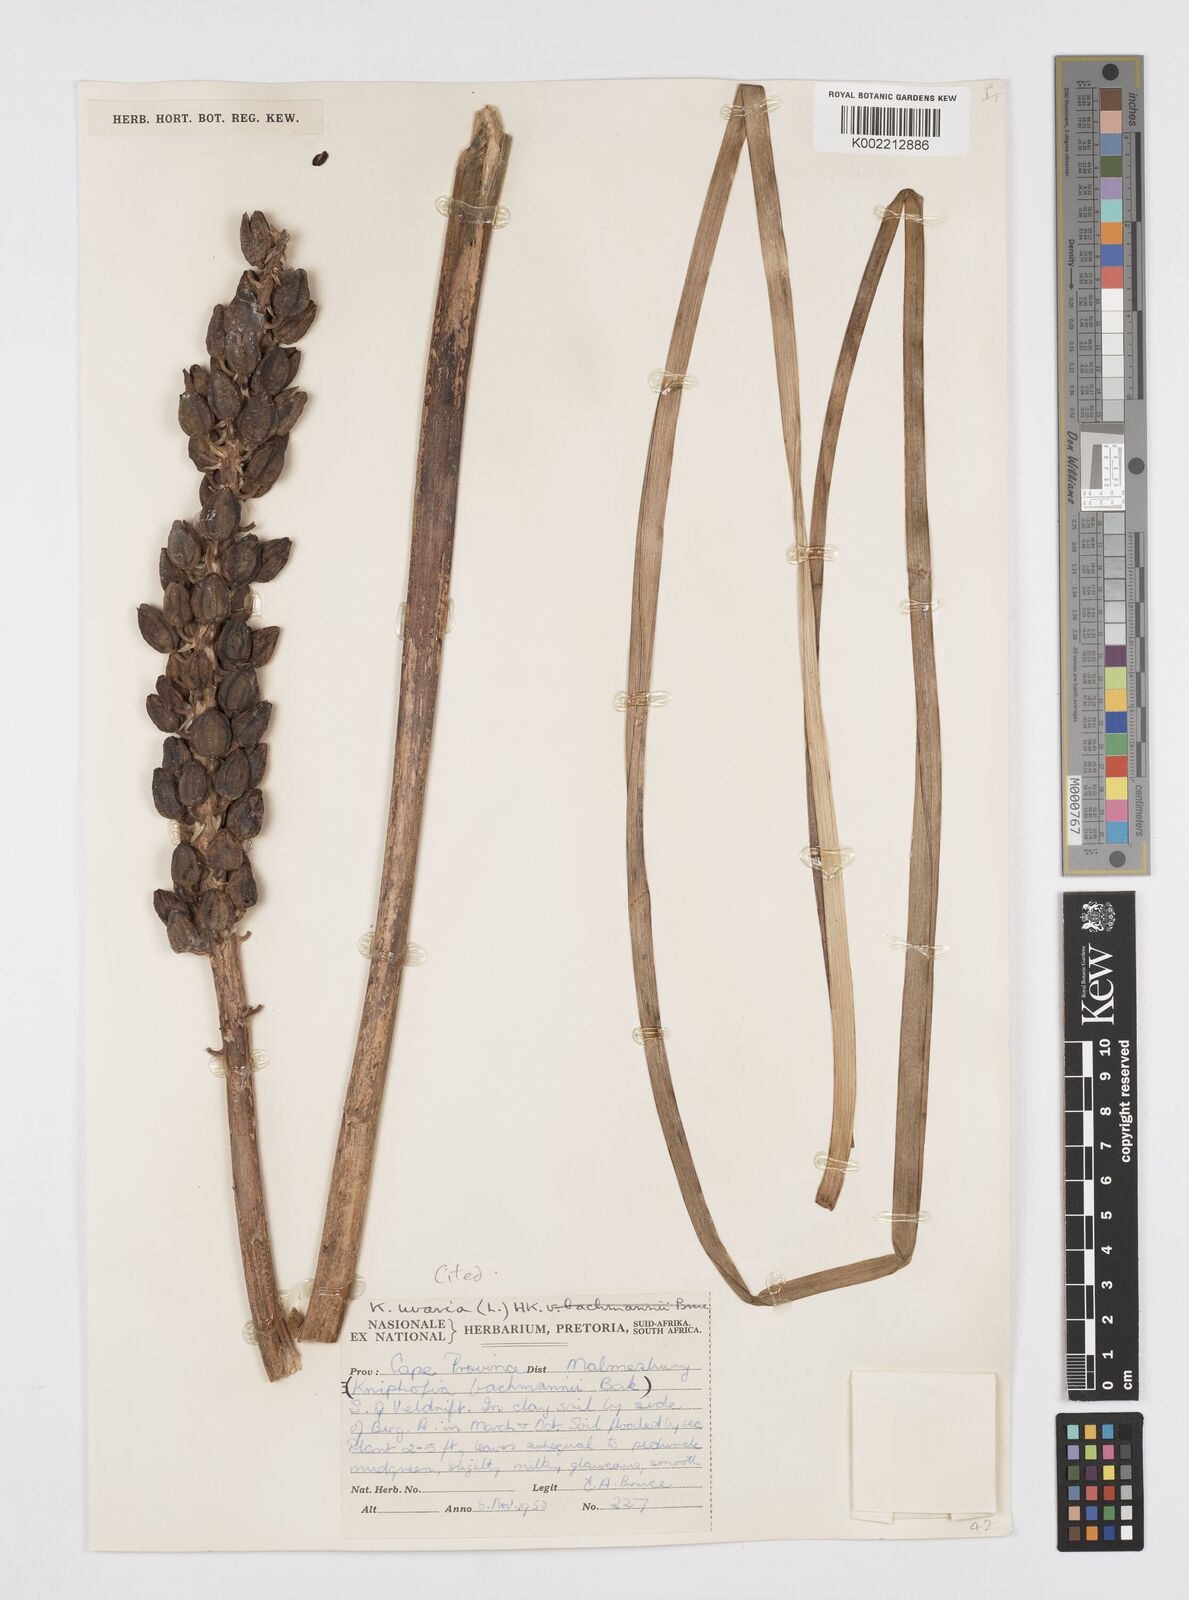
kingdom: Plantae
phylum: Tracheophyta
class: Liliopsida
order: Asparagales
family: Asphodelaceae
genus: Kniphofia
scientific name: Kniphofia uvaria
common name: Red-hot-poker
